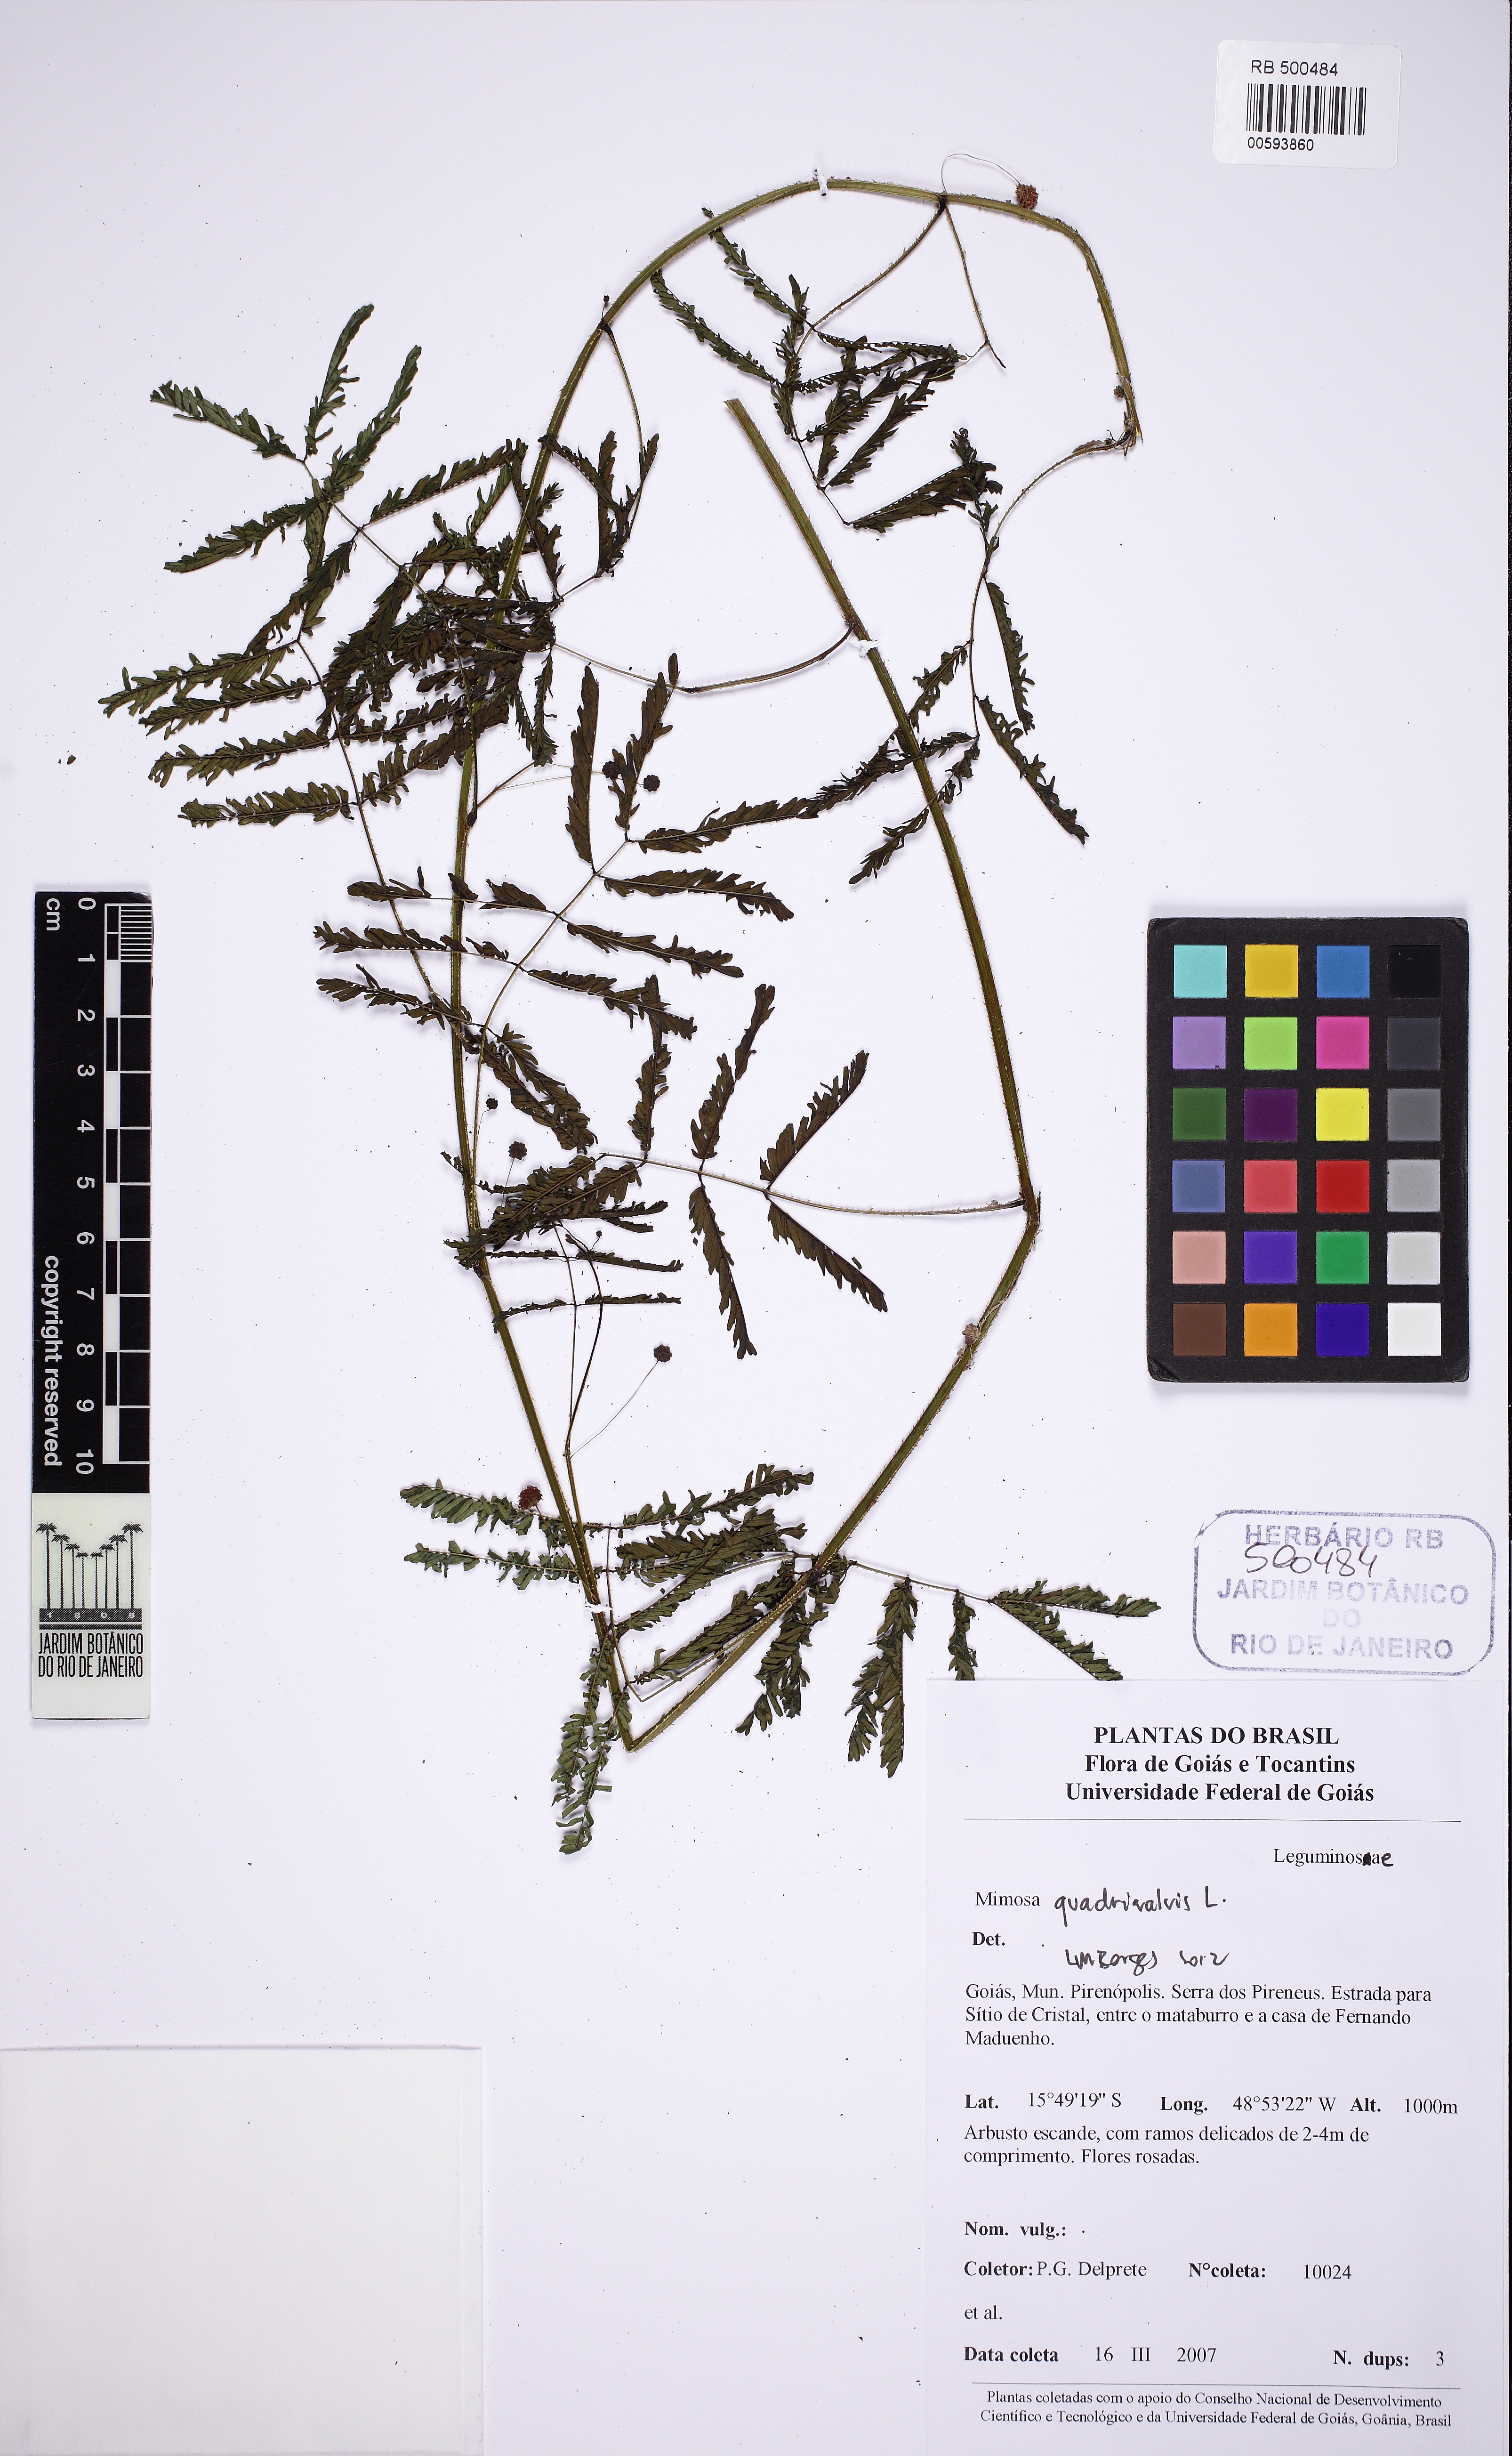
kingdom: Plantae
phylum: Tracheophyta
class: Magnoliopsida
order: Fabales
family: Fabaceae
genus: Mimosa
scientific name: Mimosa quadrivalvis
